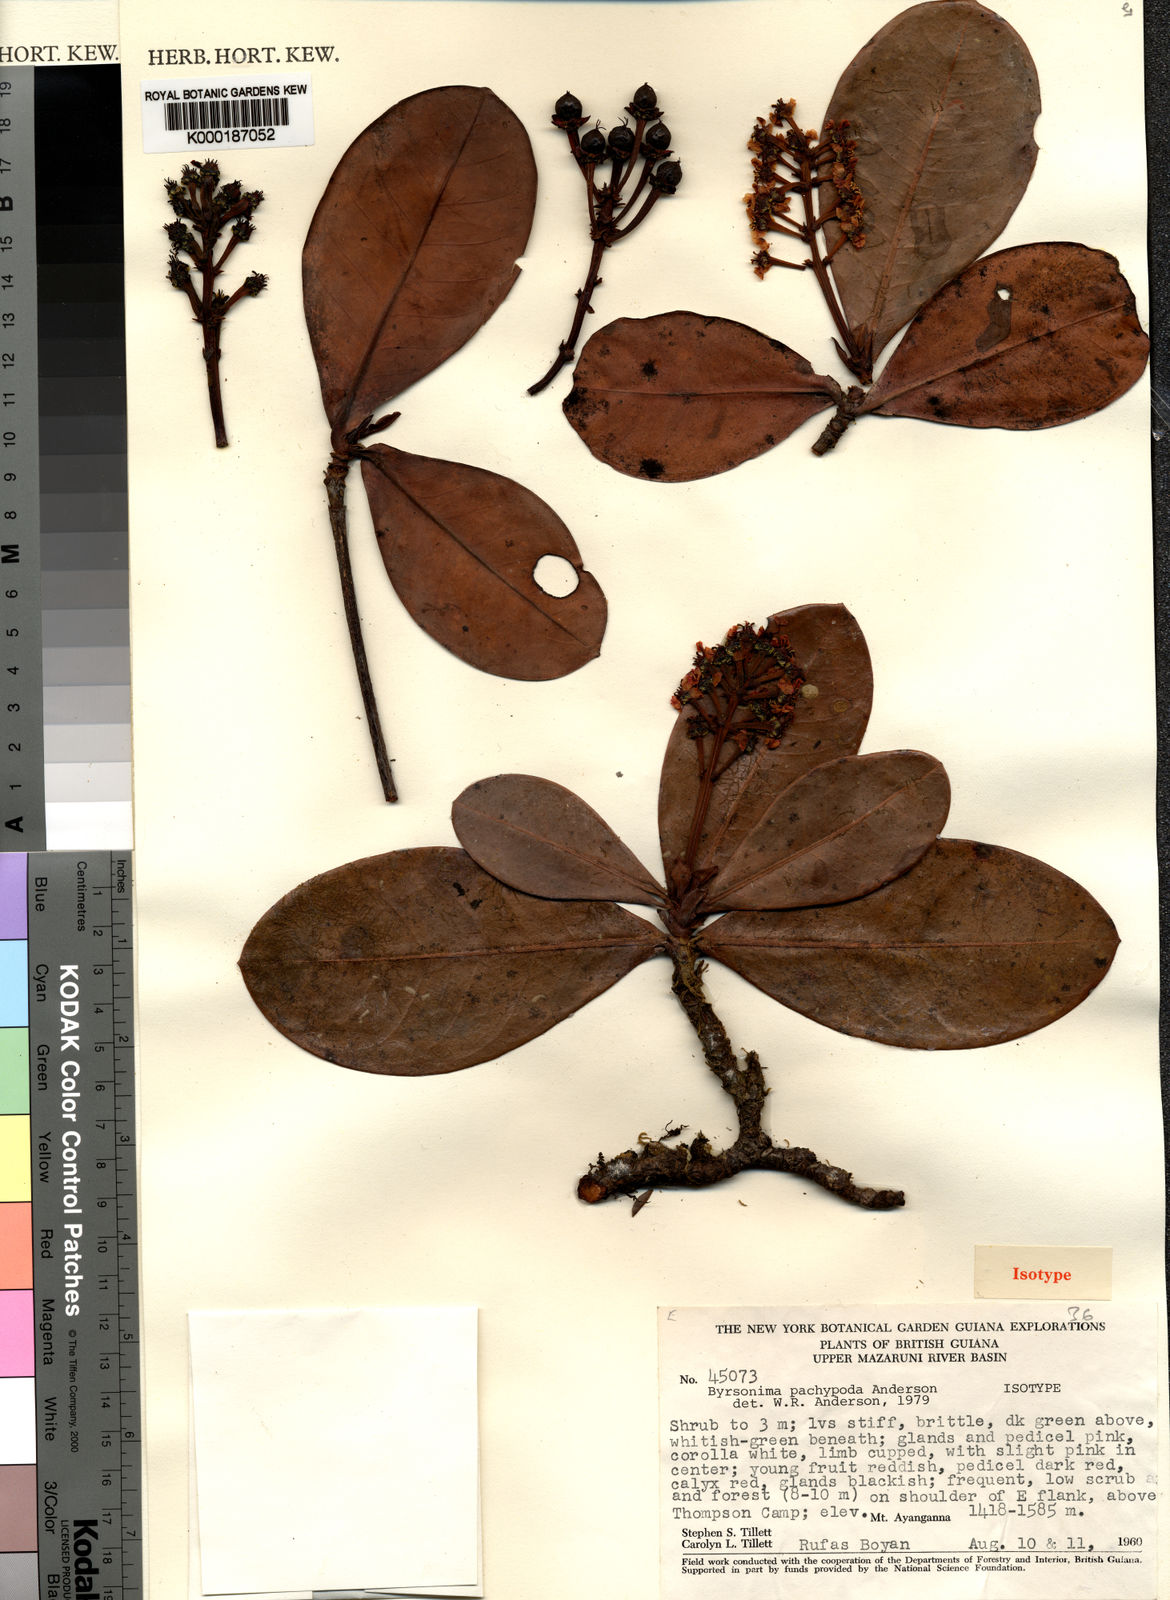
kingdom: Plantae
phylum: Tracheophyta
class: Magnoliopsida
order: Malpighiales
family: Malpighiaceae
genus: Byrsonima
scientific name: Byrsonima pachypoda
